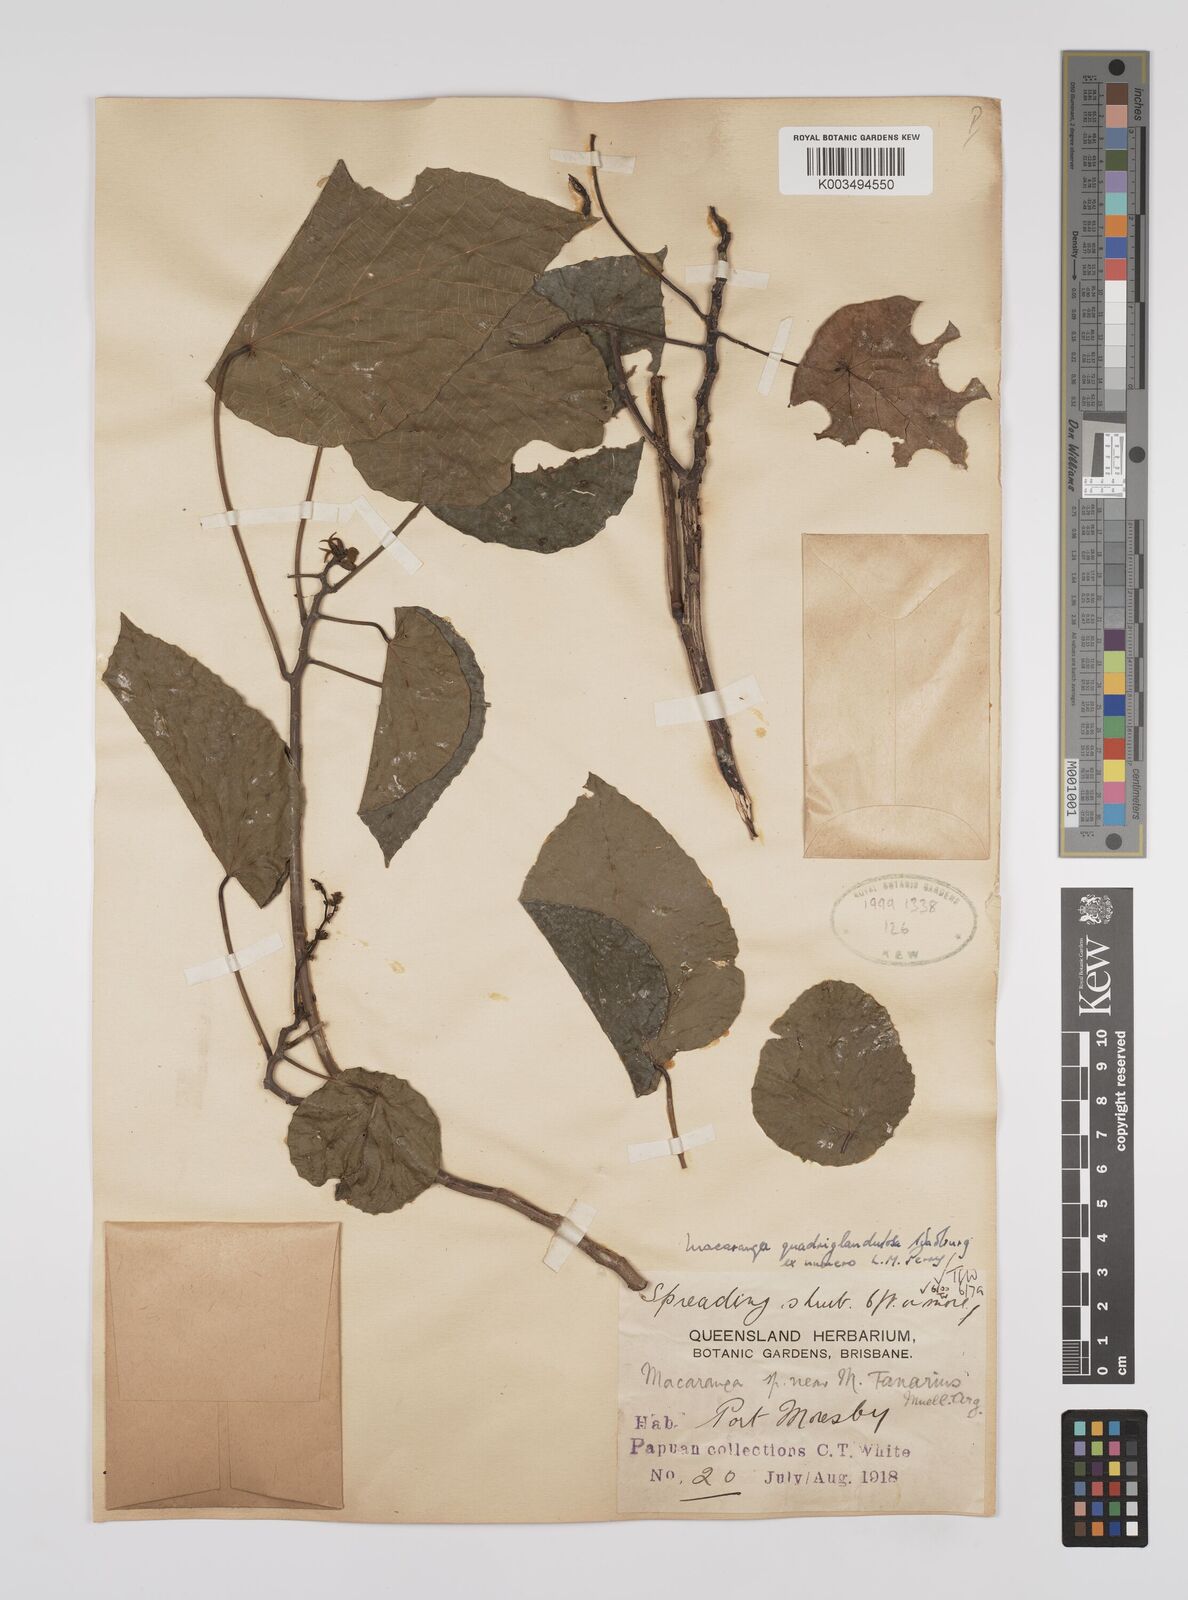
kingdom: Plantae
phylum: Tracheophyta
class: Magnoliopsida
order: Malpighiales
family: Euphorbiaceae
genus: Macaranga
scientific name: Macaranga quadriglandulosa
